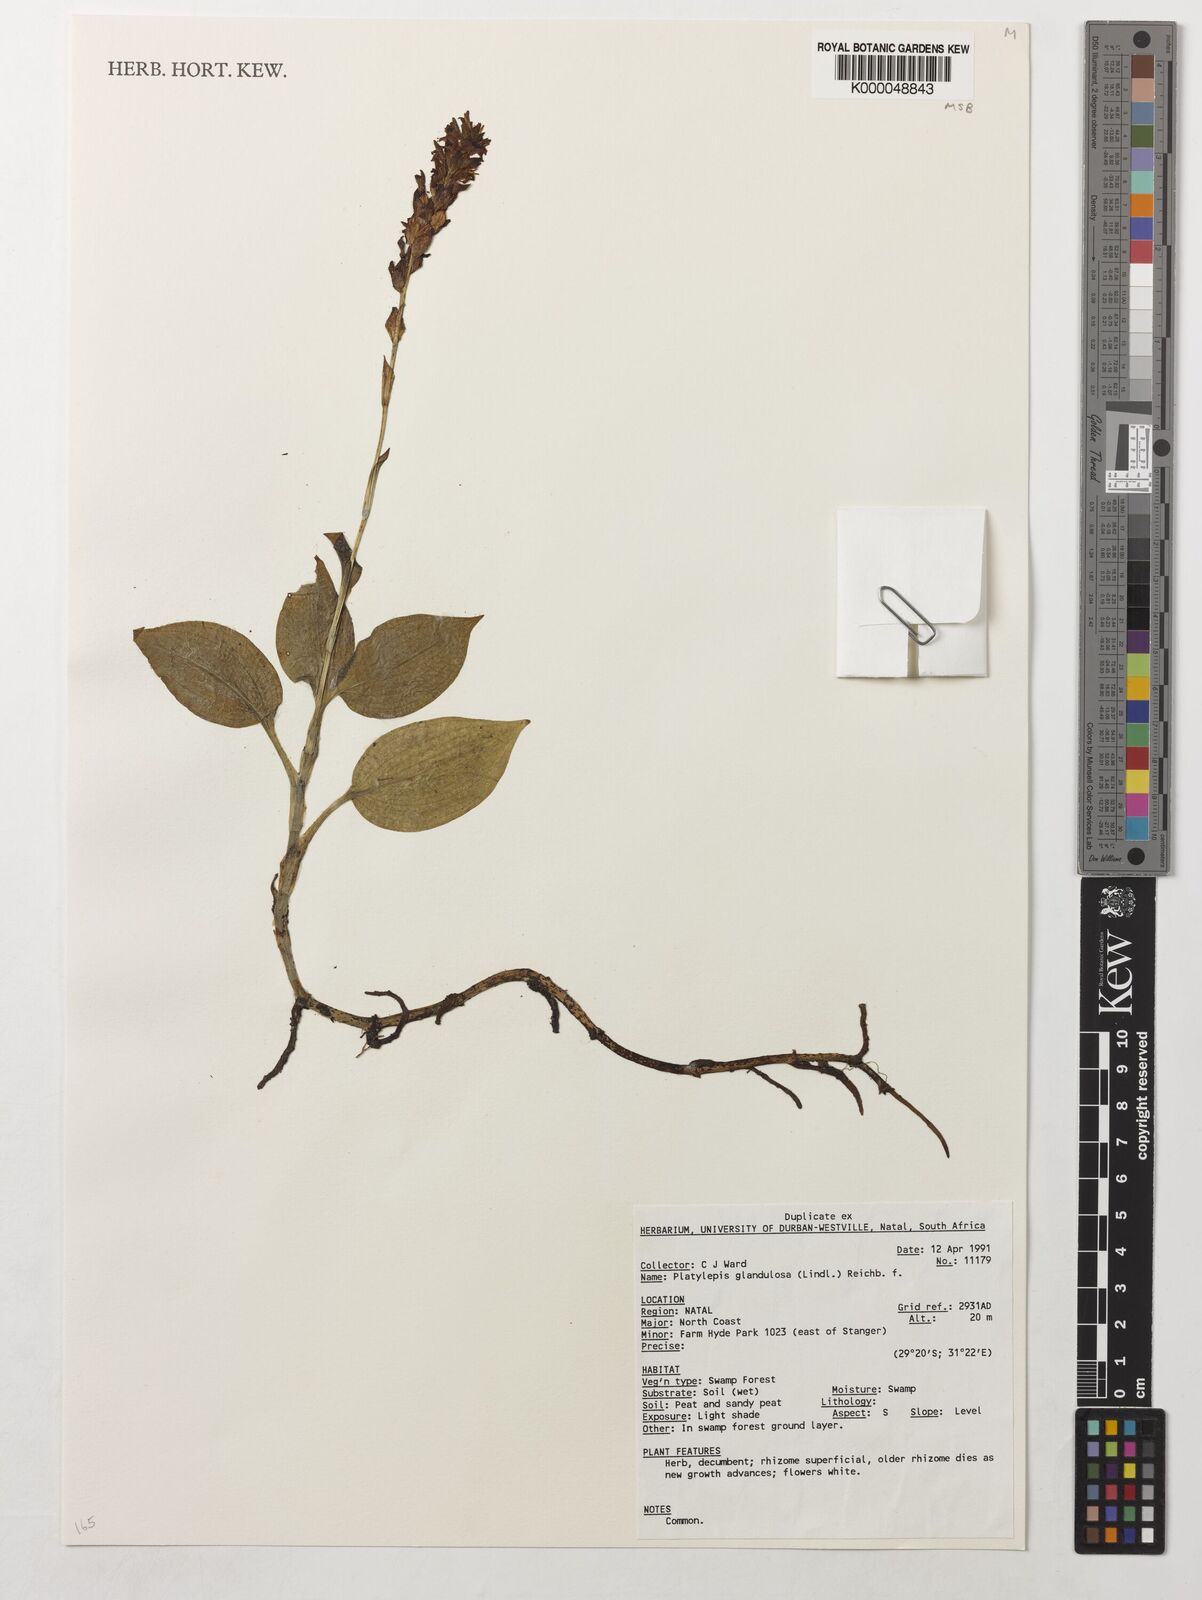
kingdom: Plantae
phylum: Tracheophyta
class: Liliopsida
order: Asparagales
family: Orchidaceae
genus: Platylepis
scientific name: Platylepis glandulosa
